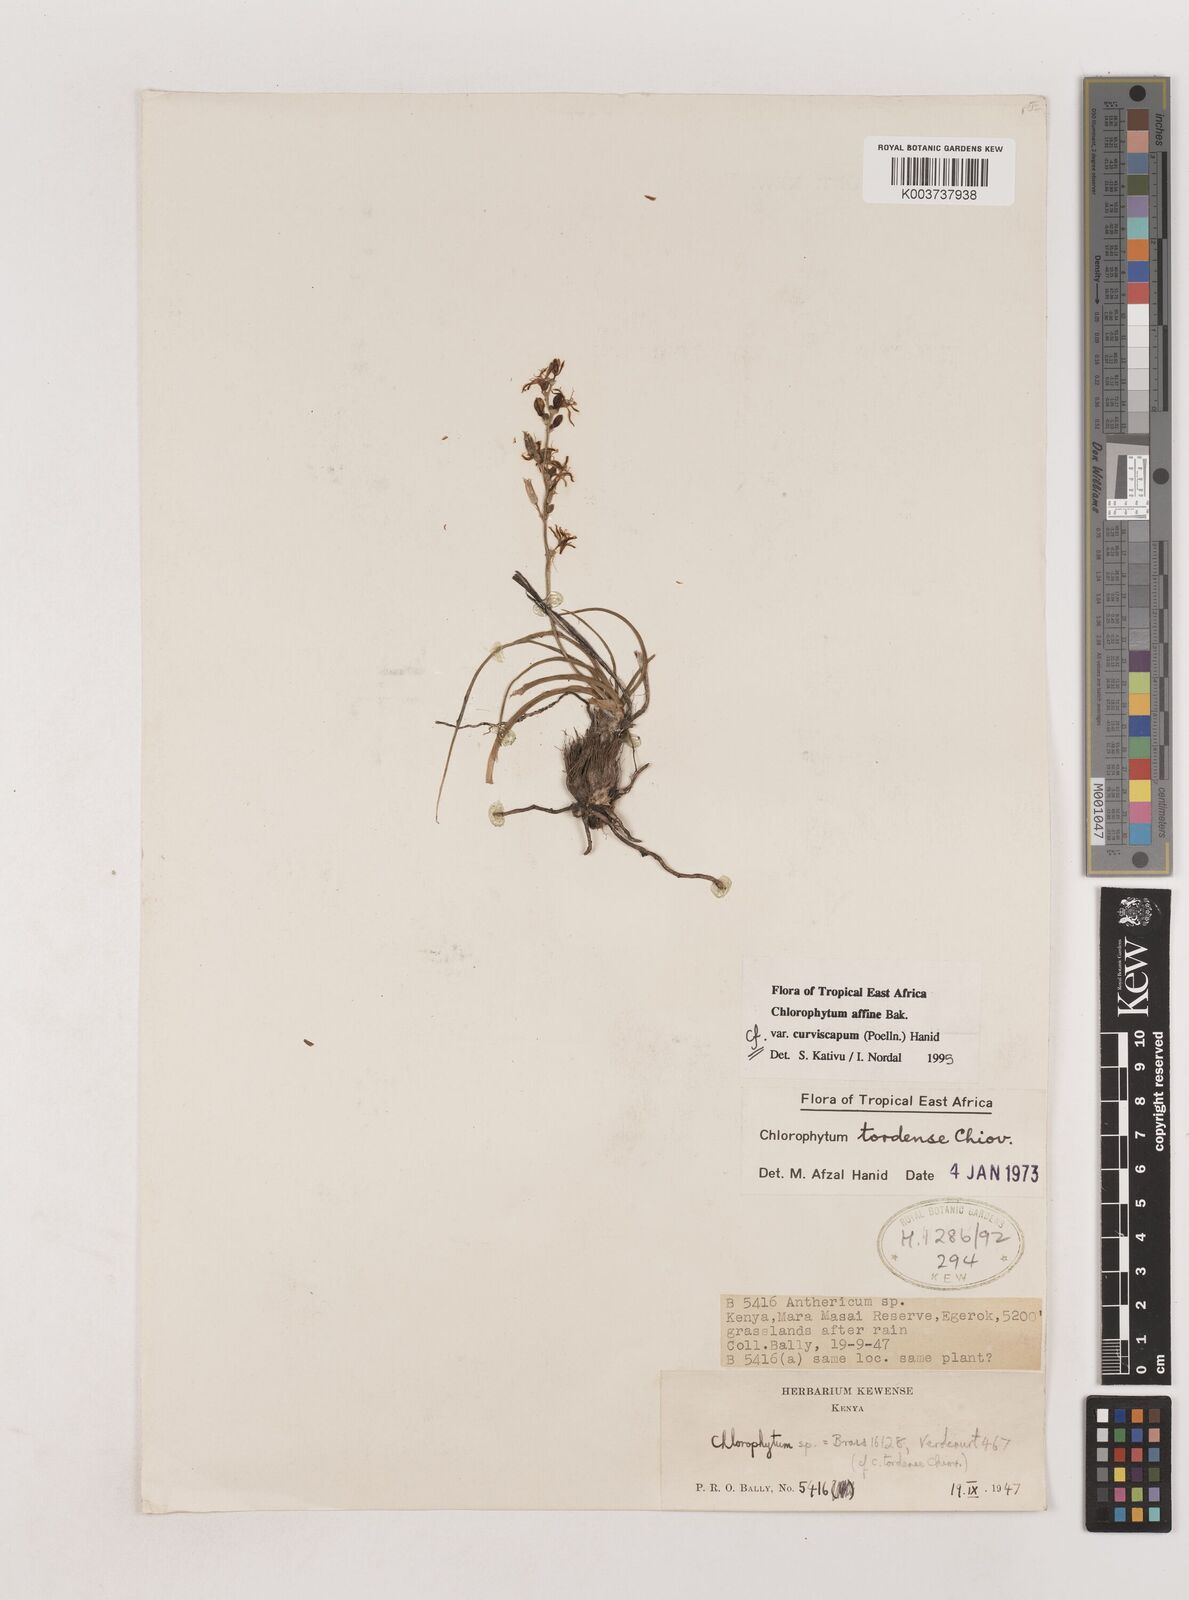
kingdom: Plantae
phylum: Tracheophyta
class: Liliopsida
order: Asparagales
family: Asparagaceae
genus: Chlorophytum
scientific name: Chlorophytum tordense
